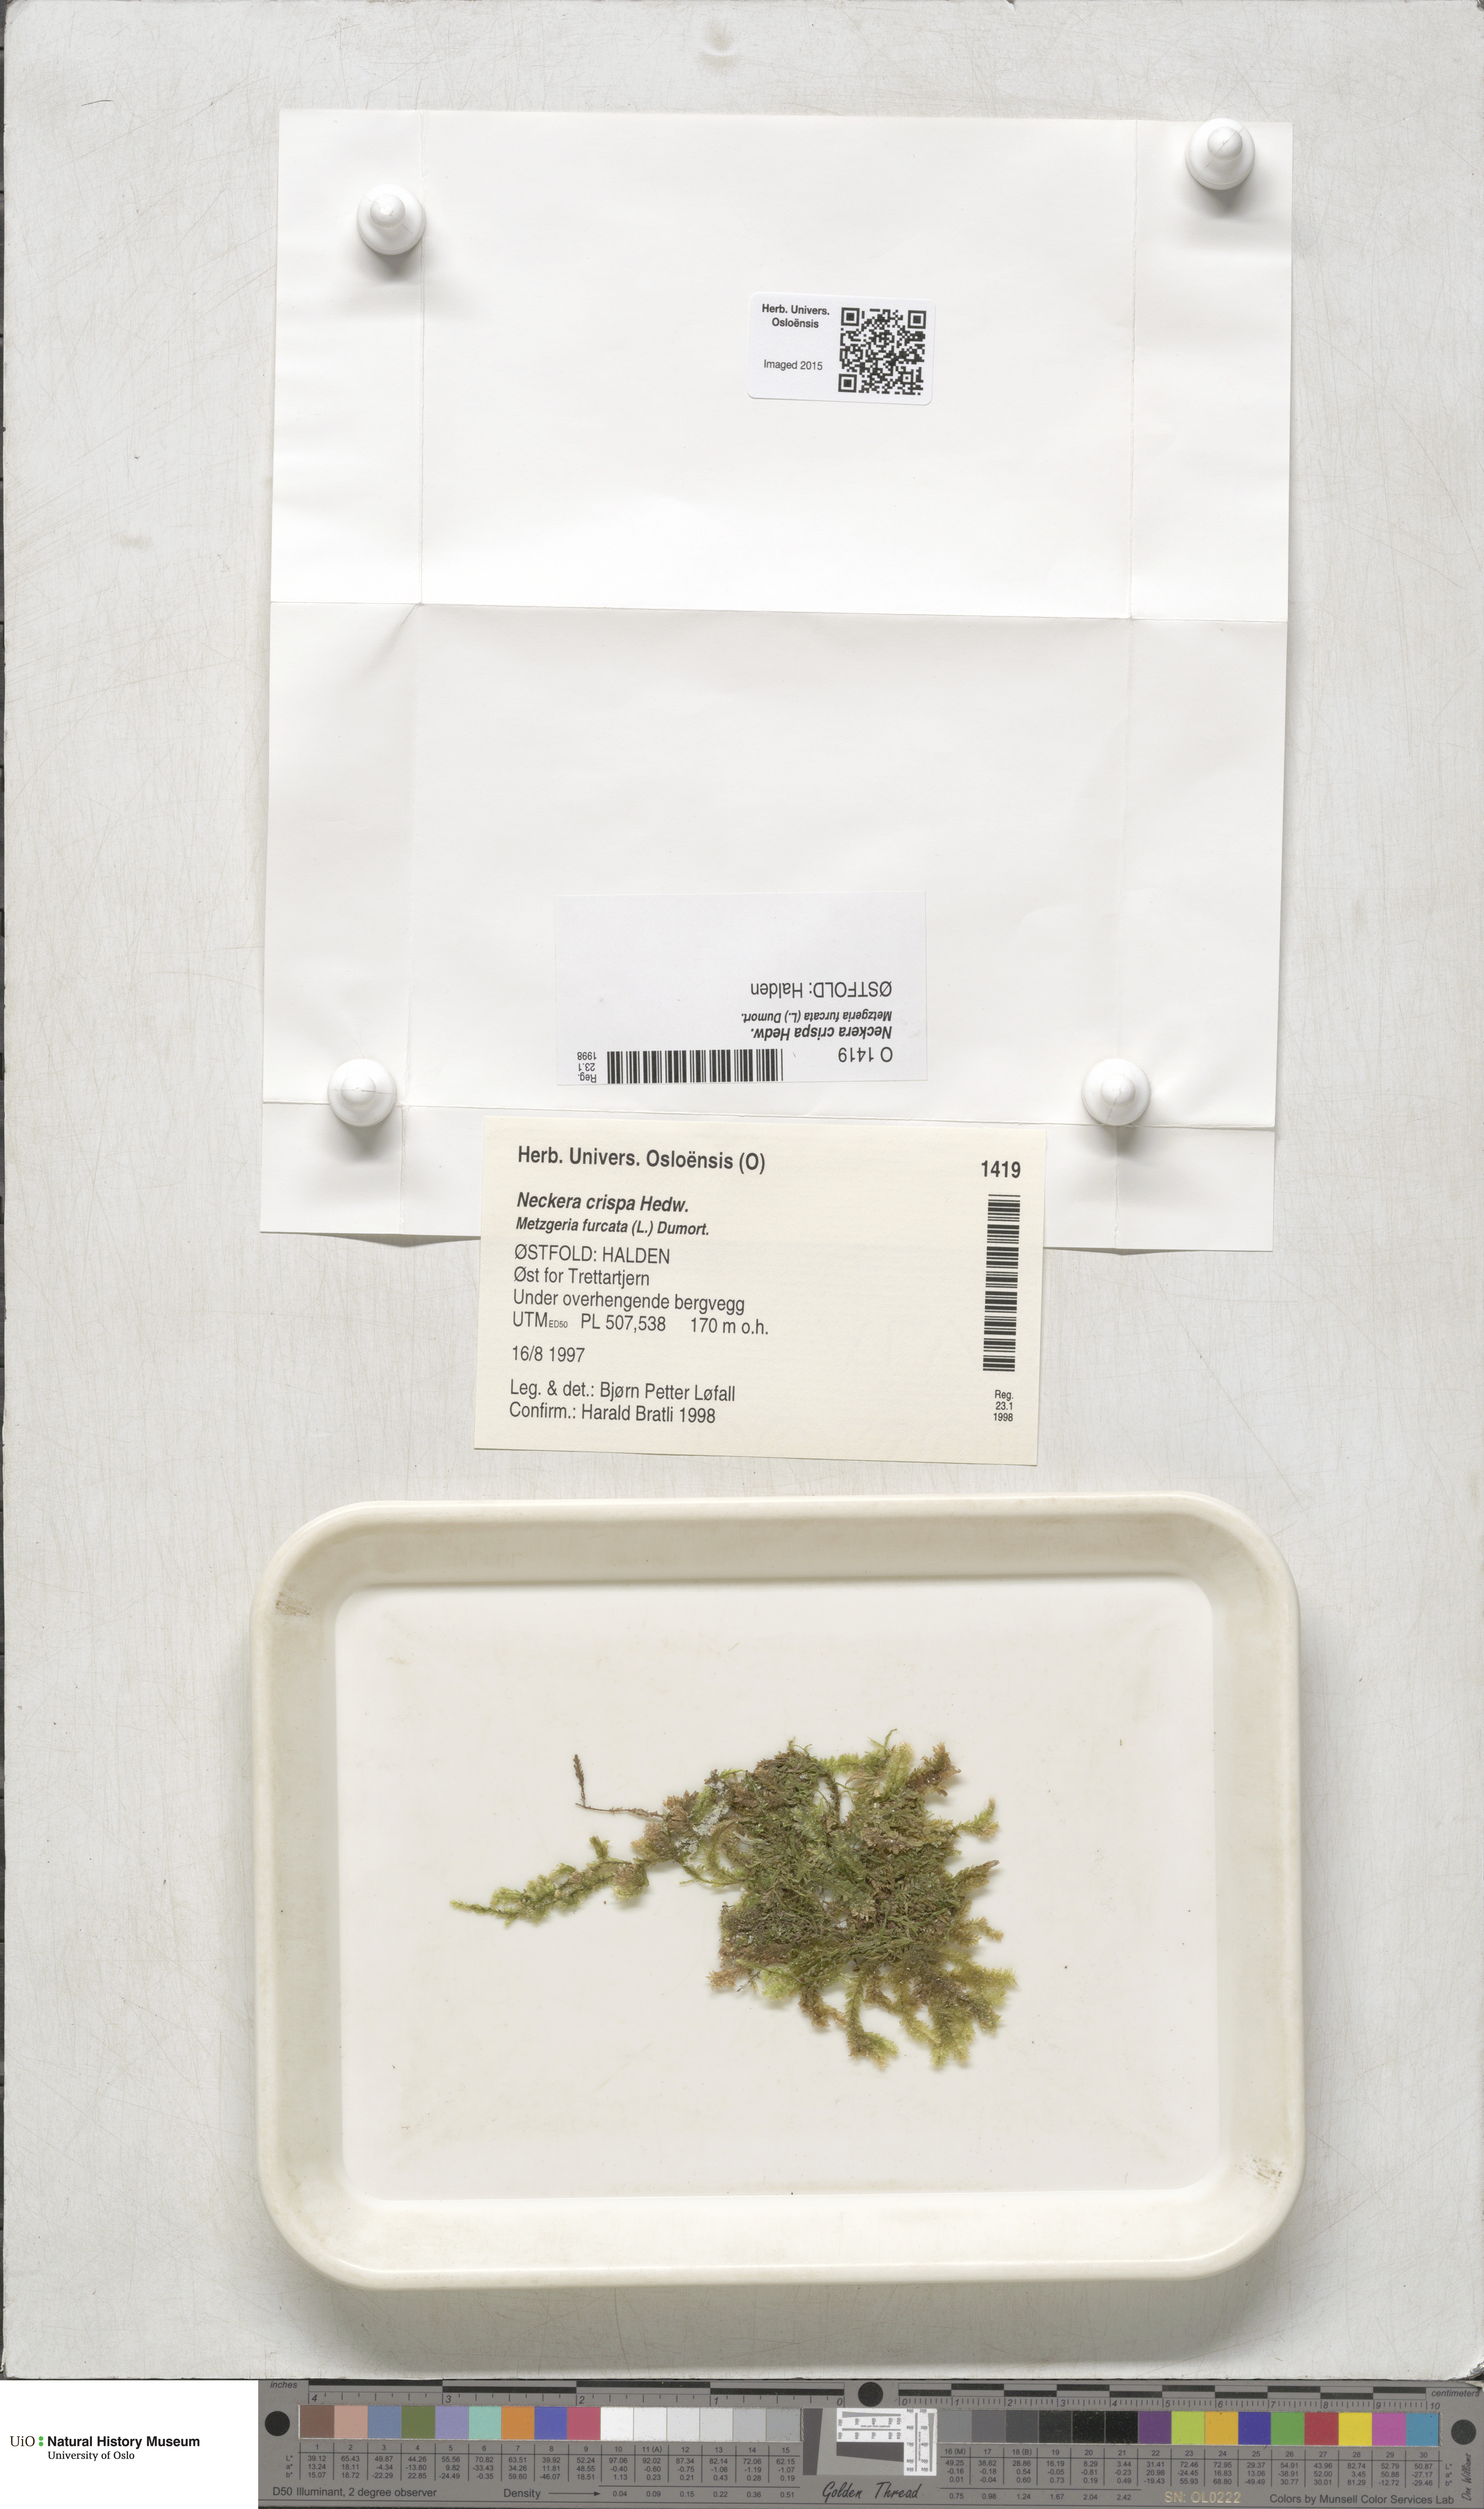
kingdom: Plantae
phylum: Bryophyta
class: Bryopsida
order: Hypnales
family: Neckeraceae
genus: Exsertotheca
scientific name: Exsertotheca crispa
